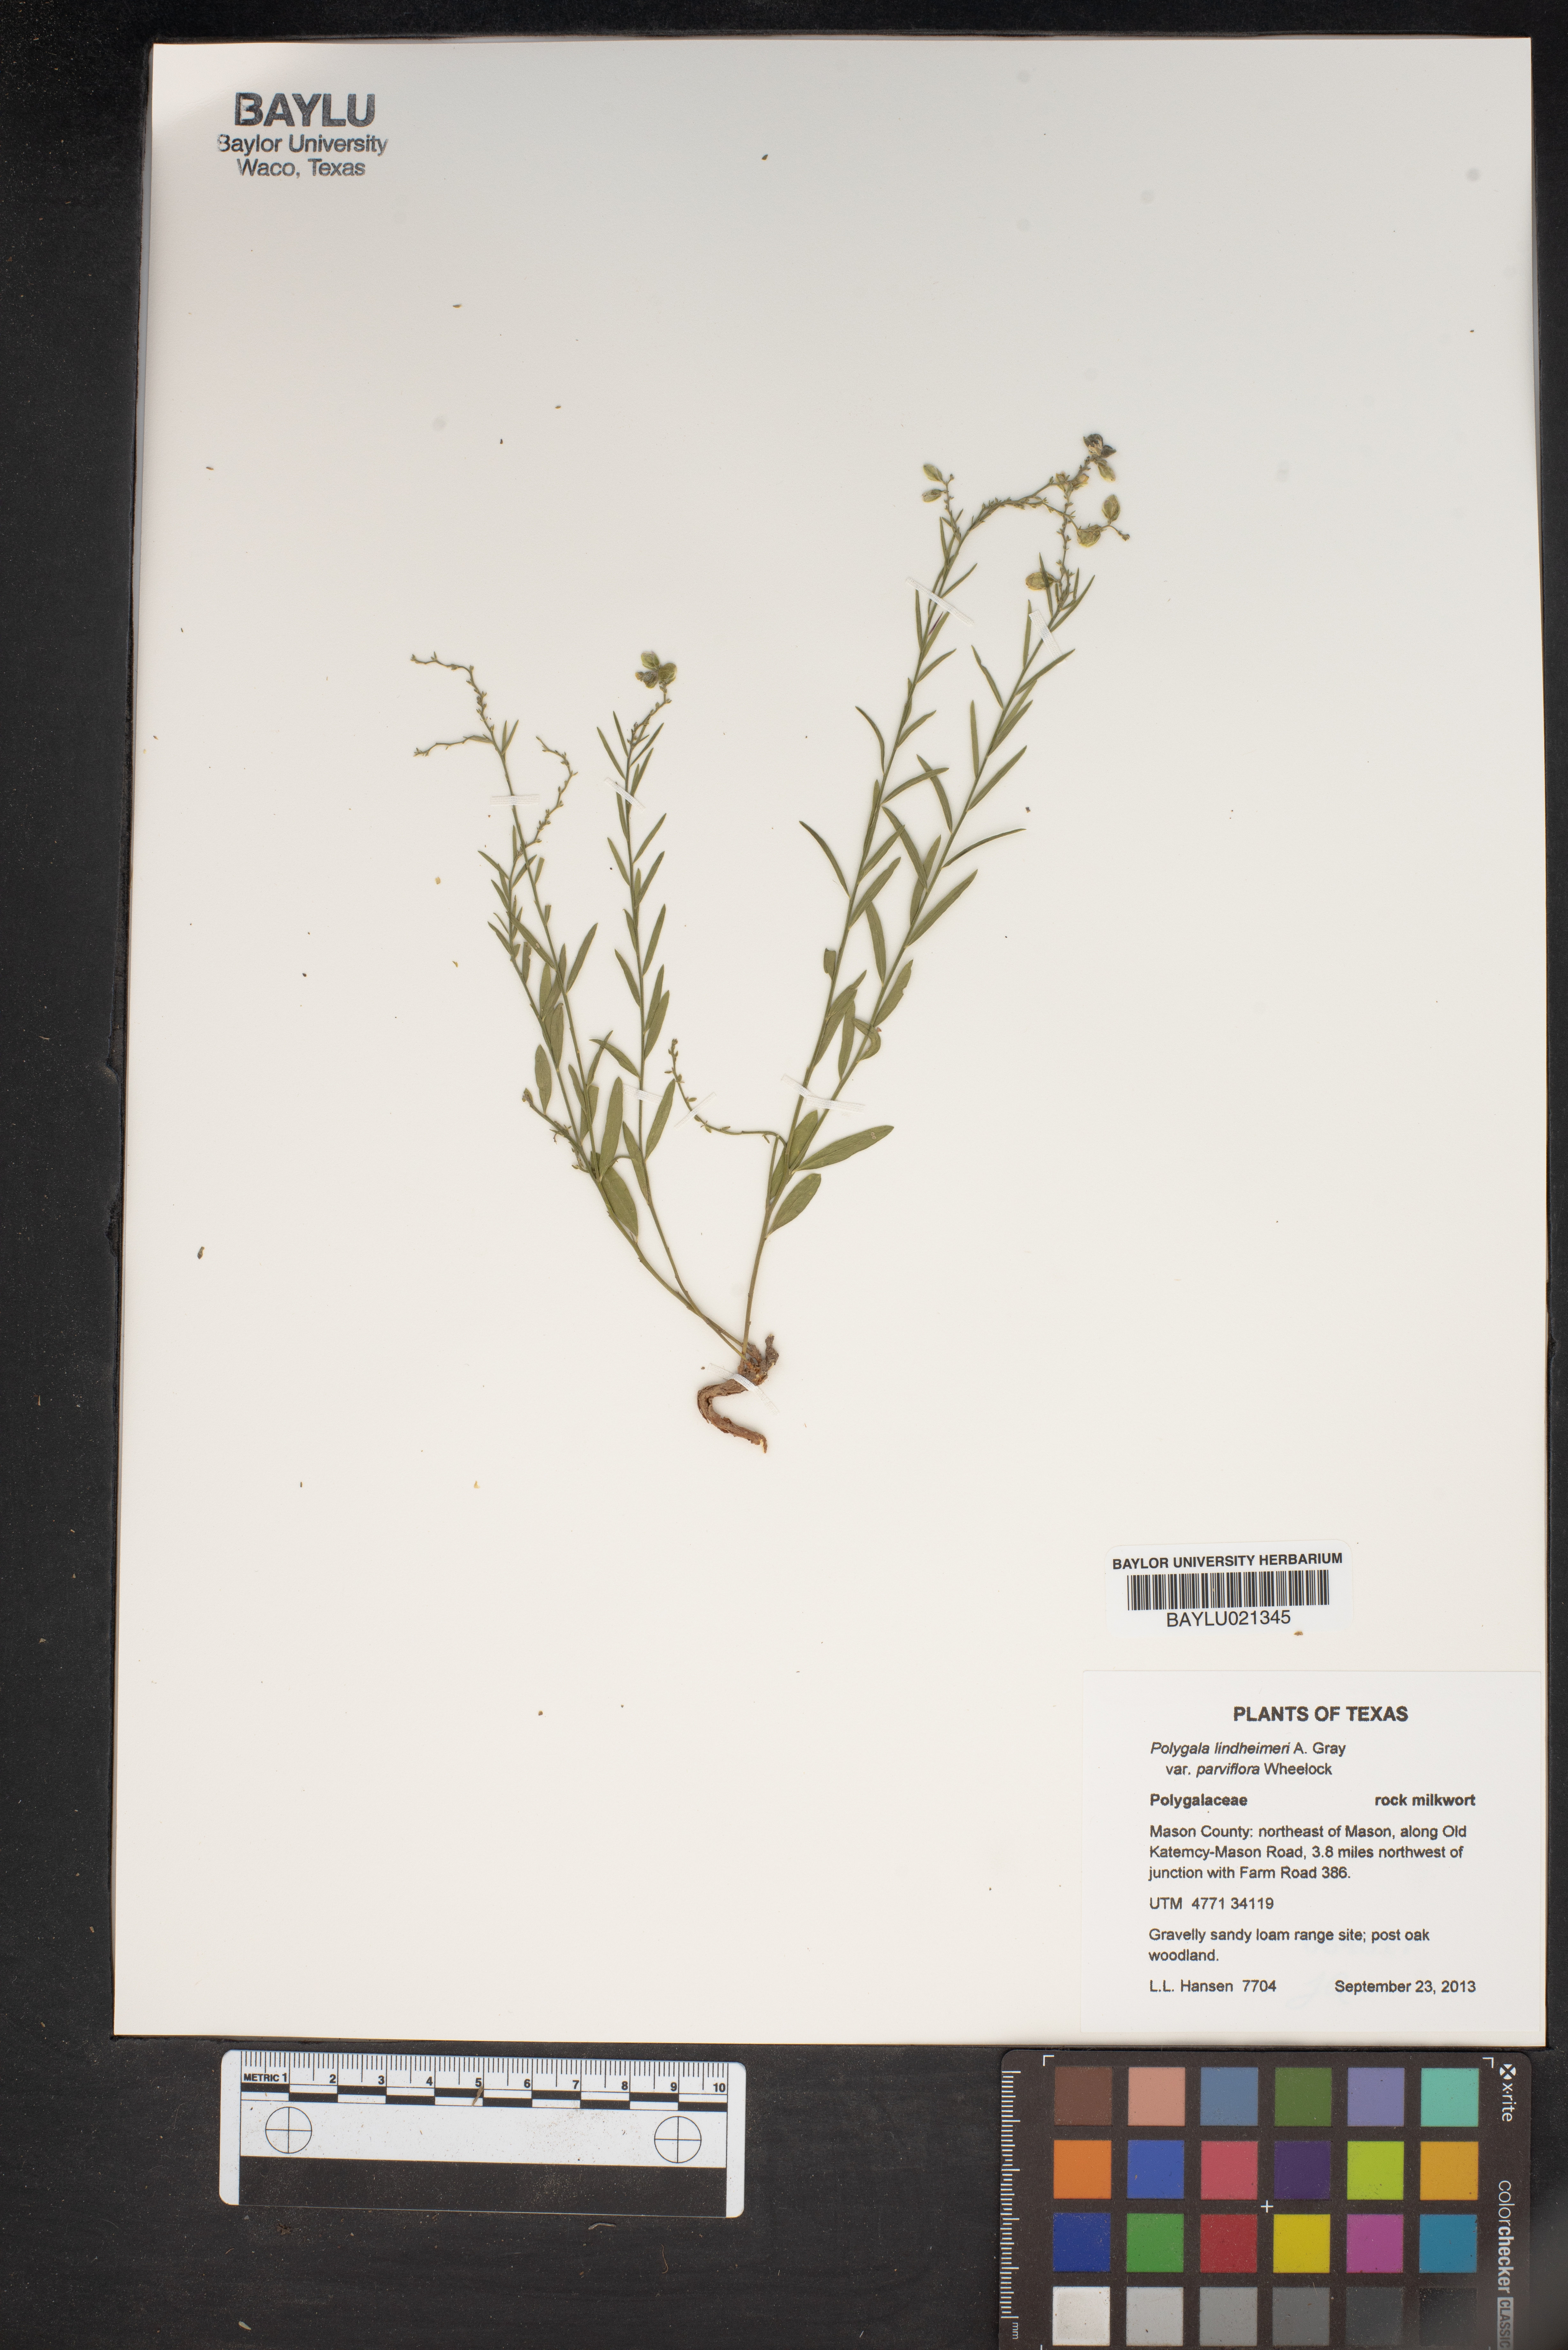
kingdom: Plantae
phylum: Tracheophyta
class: Magnoliopsida
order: Fabales
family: Polygalaceae
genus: Rhinotropis
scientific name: Rhinotropis lindheimeri
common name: Shrubby milkwort
